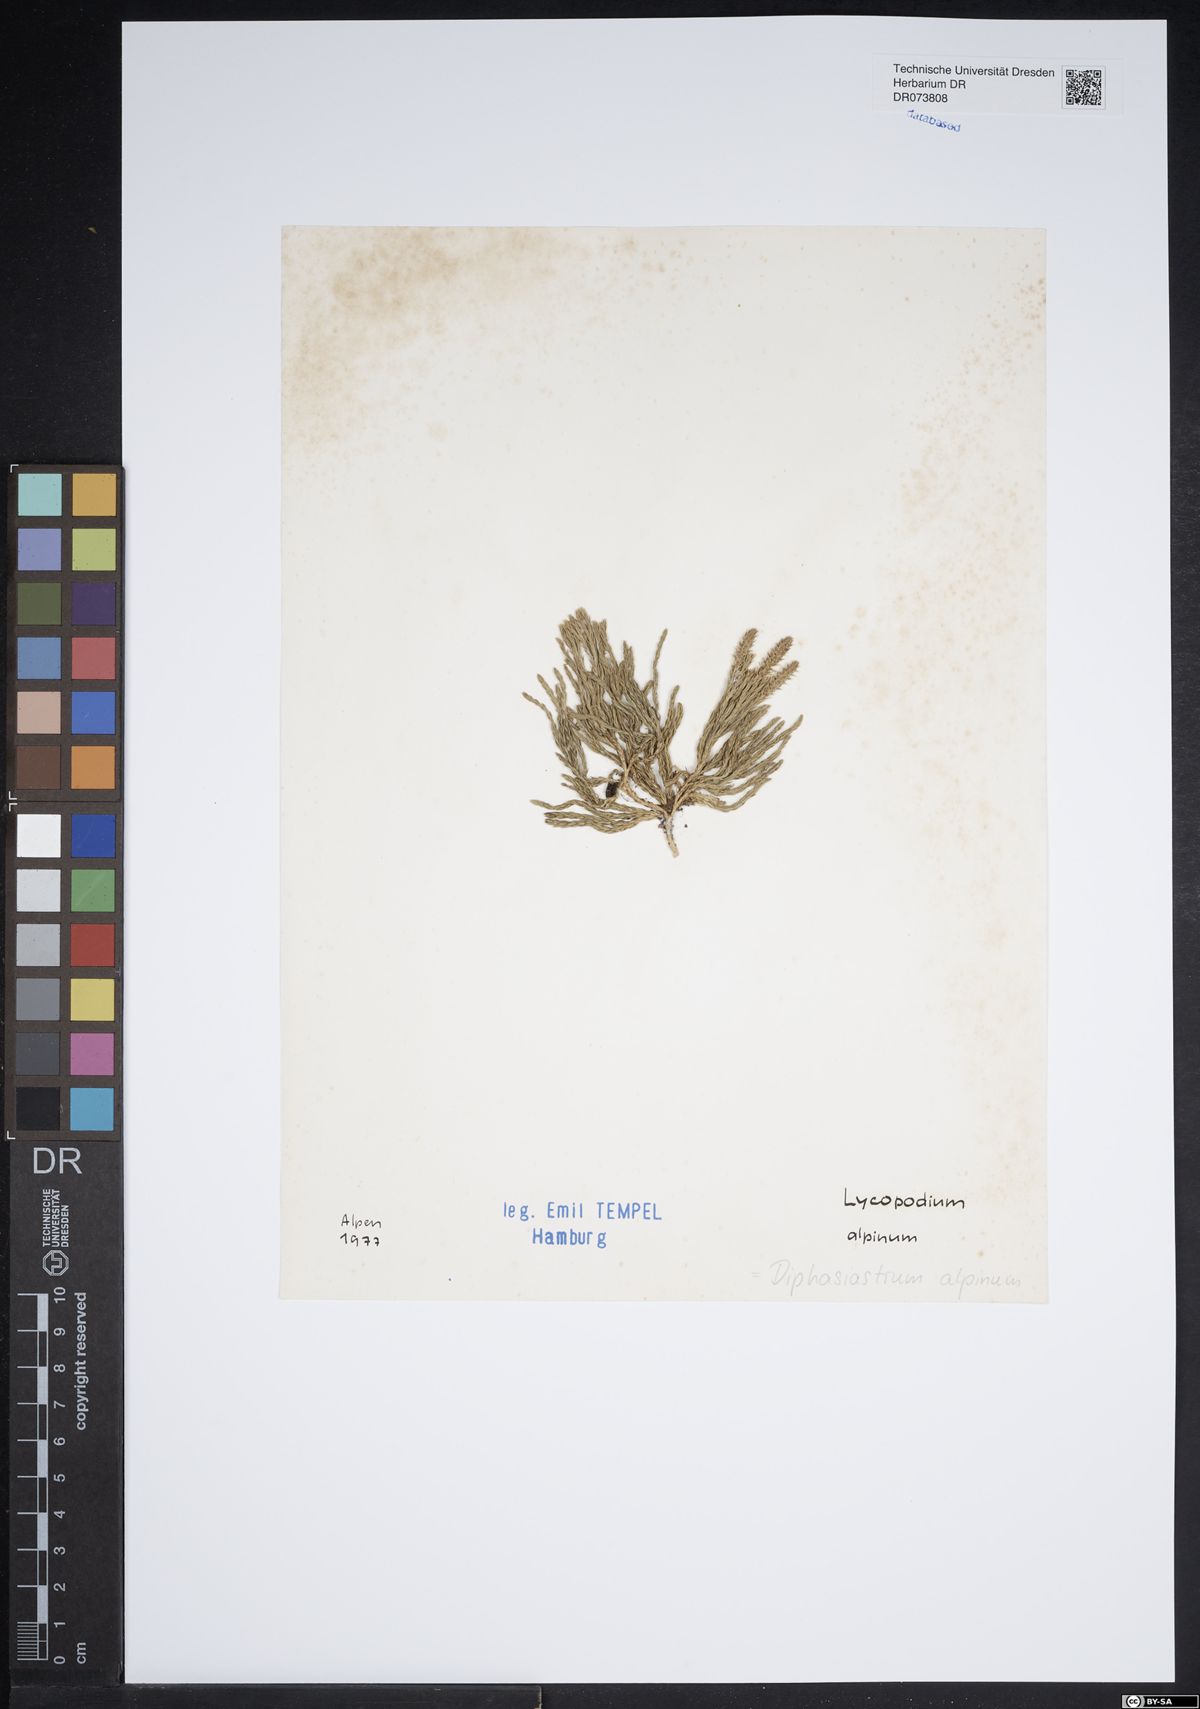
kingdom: Plantae
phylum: Tracheophyta
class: Lycopodiopsida
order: Lycopodiales
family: Lycopodiaceae
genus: Diphasiastrum
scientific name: Diphasiastrum alpinum
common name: Alpine clubmoss
